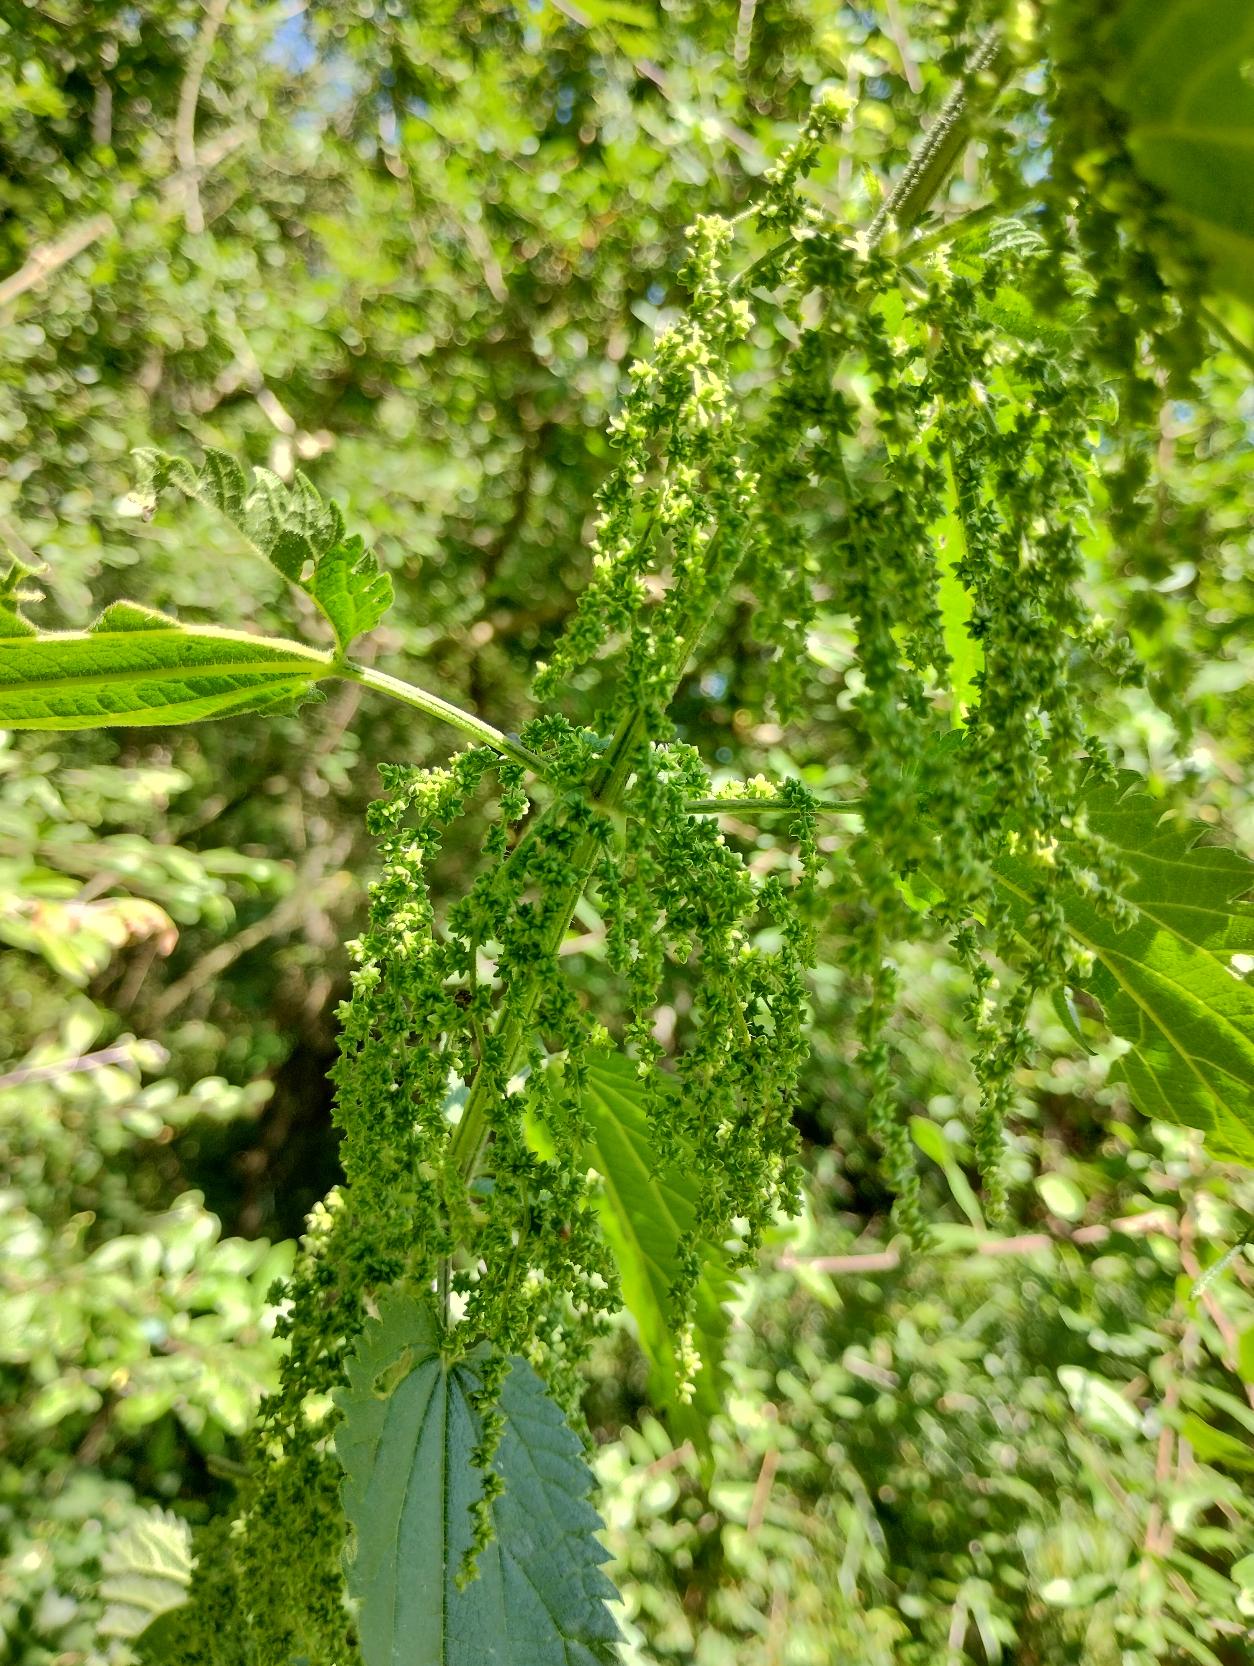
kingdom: Plantae
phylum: Tracheophyta
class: Magnoliopsida
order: Rosales
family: Urticaceae
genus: Urtica
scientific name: Urtica dioica
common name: Stor nælde
